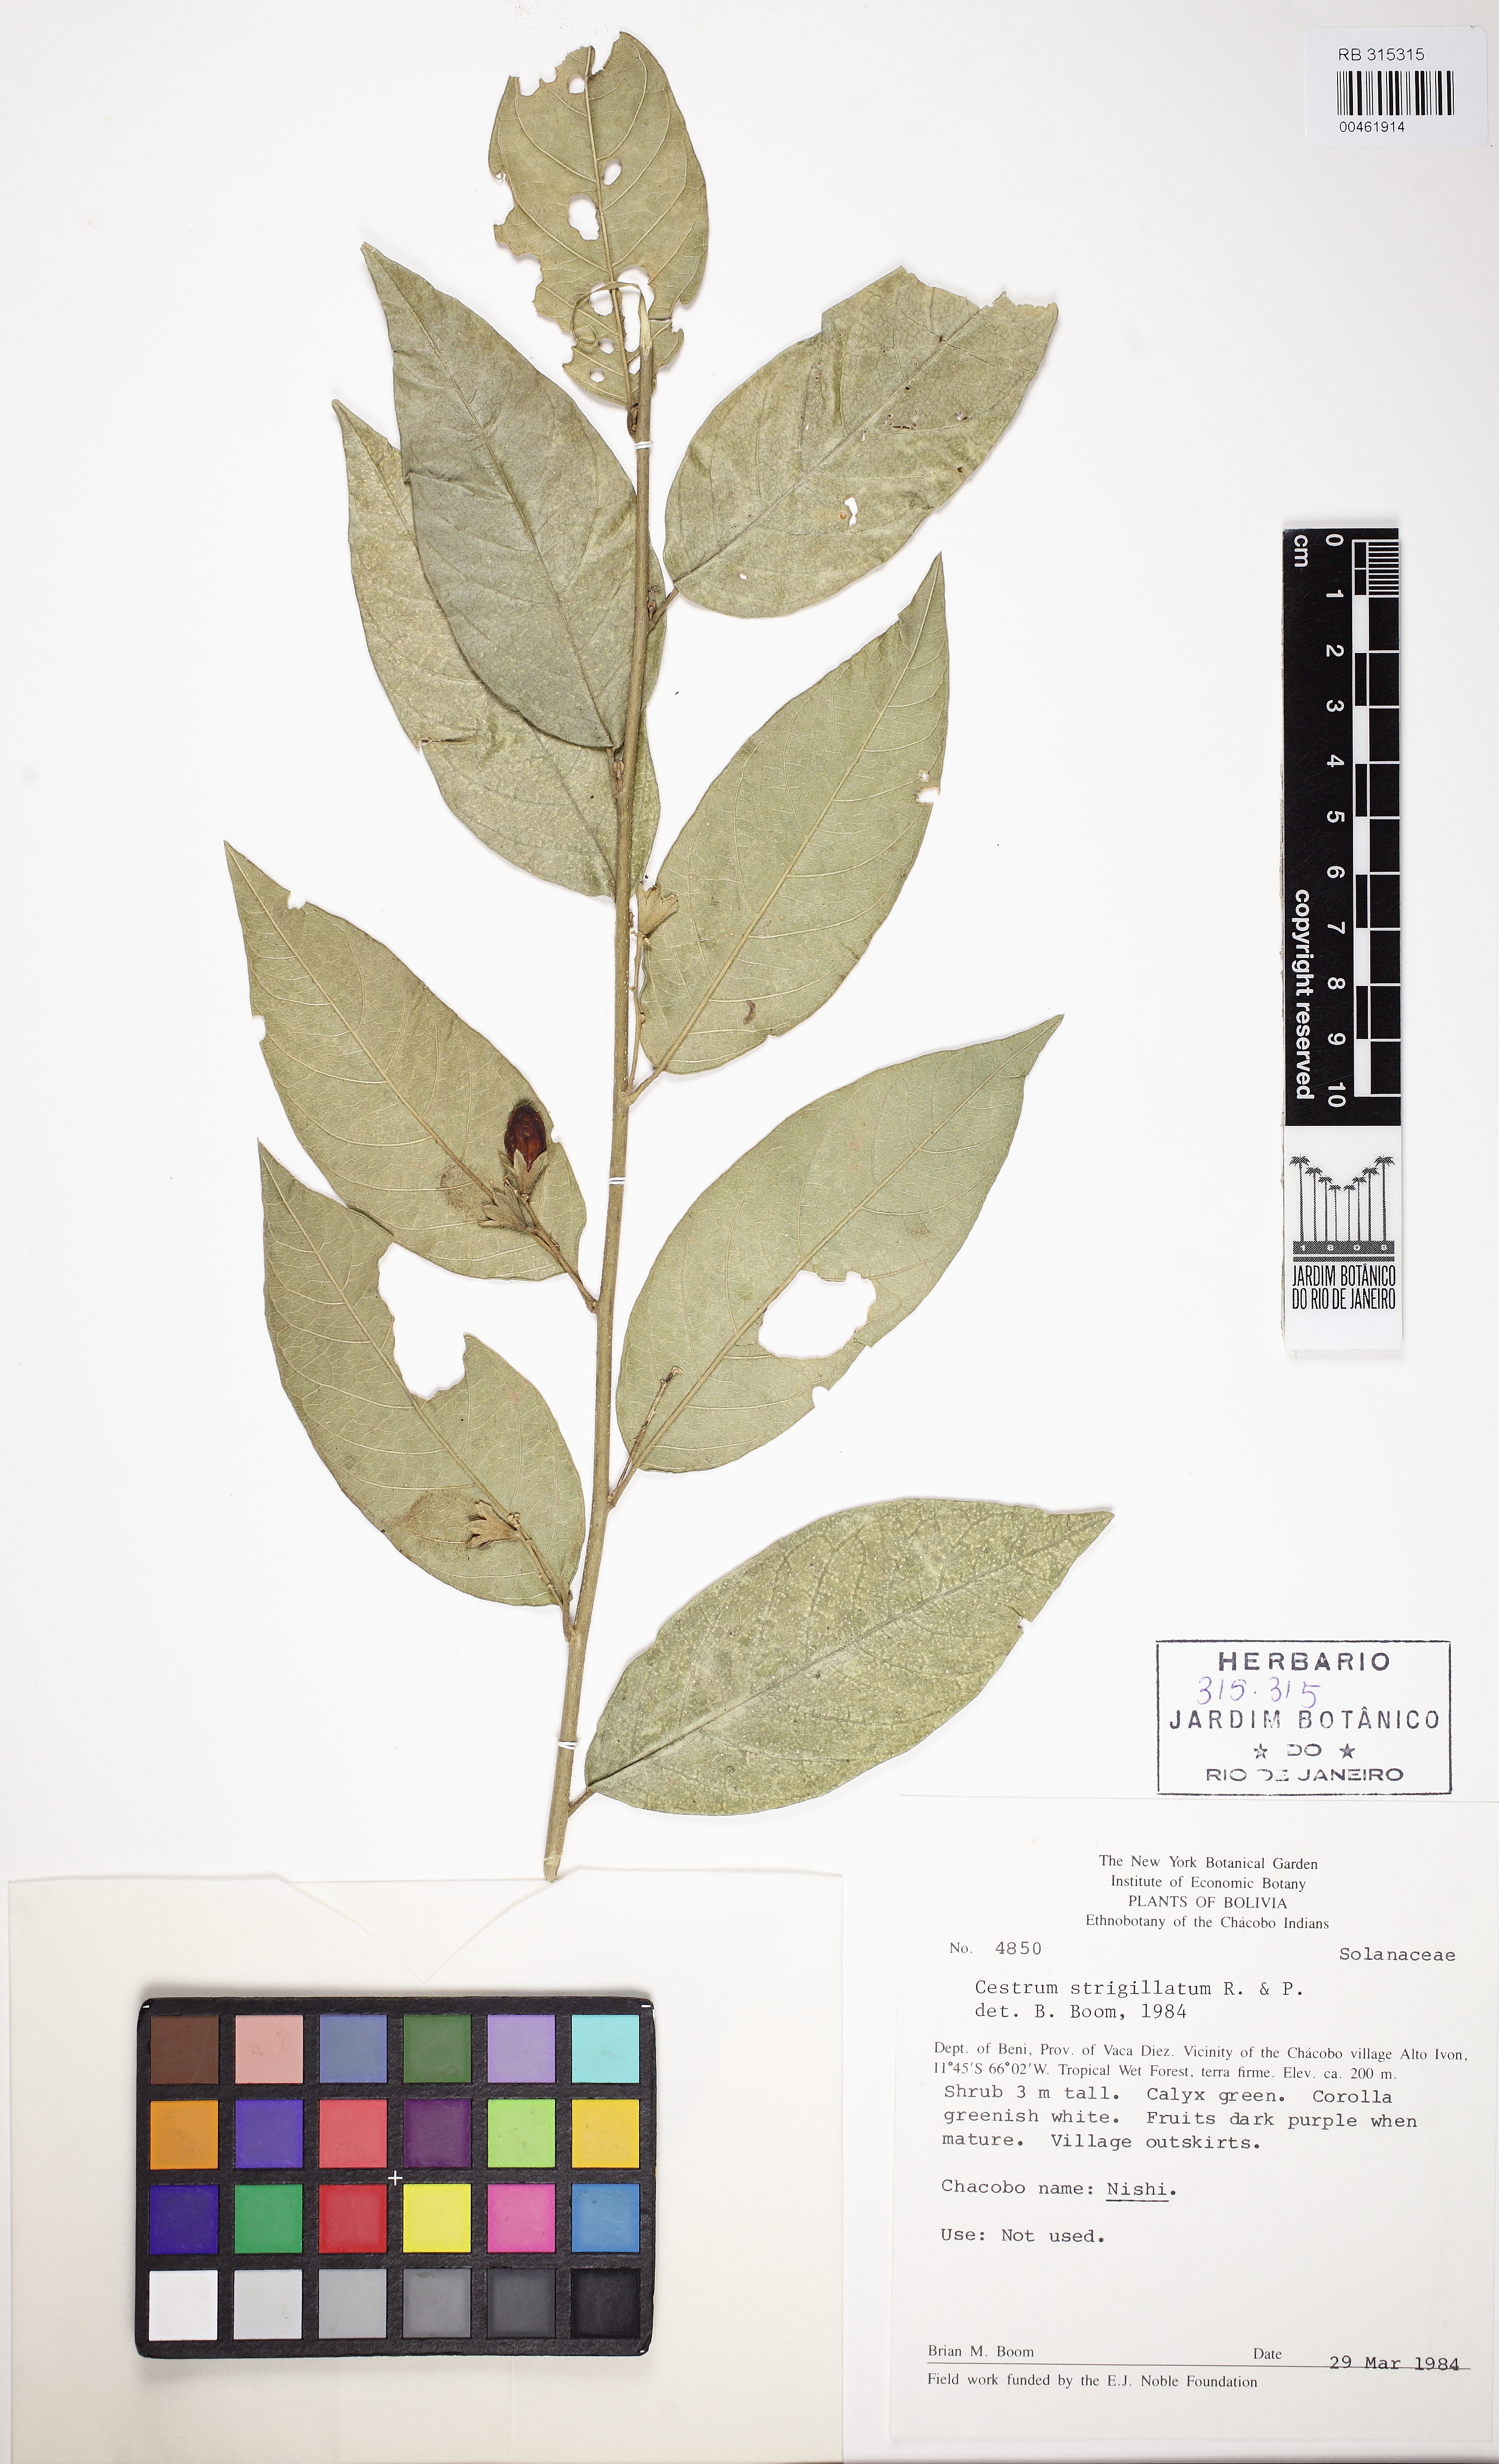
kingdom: Plantae
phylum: Tracheophyta
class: Magnoliopsida
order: Solanales
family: Solanaceae
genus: Cestrum
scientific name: Cestrum strigillatum
